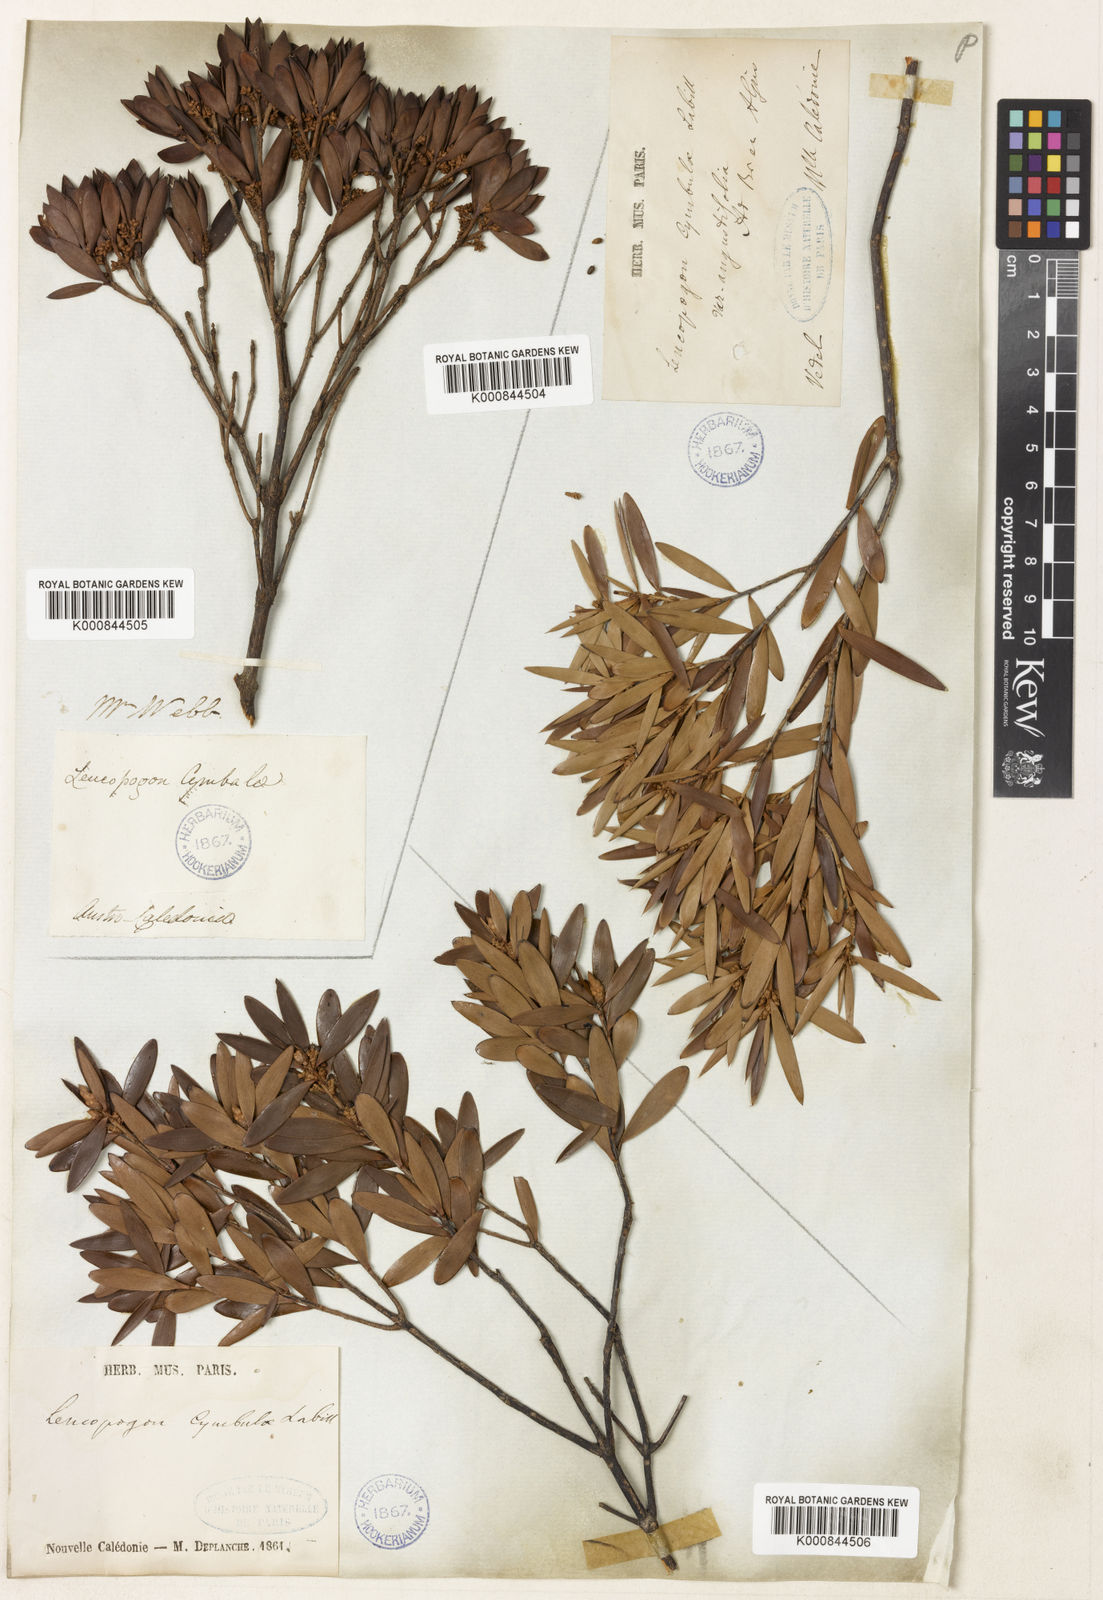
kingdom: Plantae
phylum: Tracheophyta
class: Magnoliopsida
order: Ericales
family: Ericaceae
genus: Styphelia
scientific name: Styphelia cymbulae
